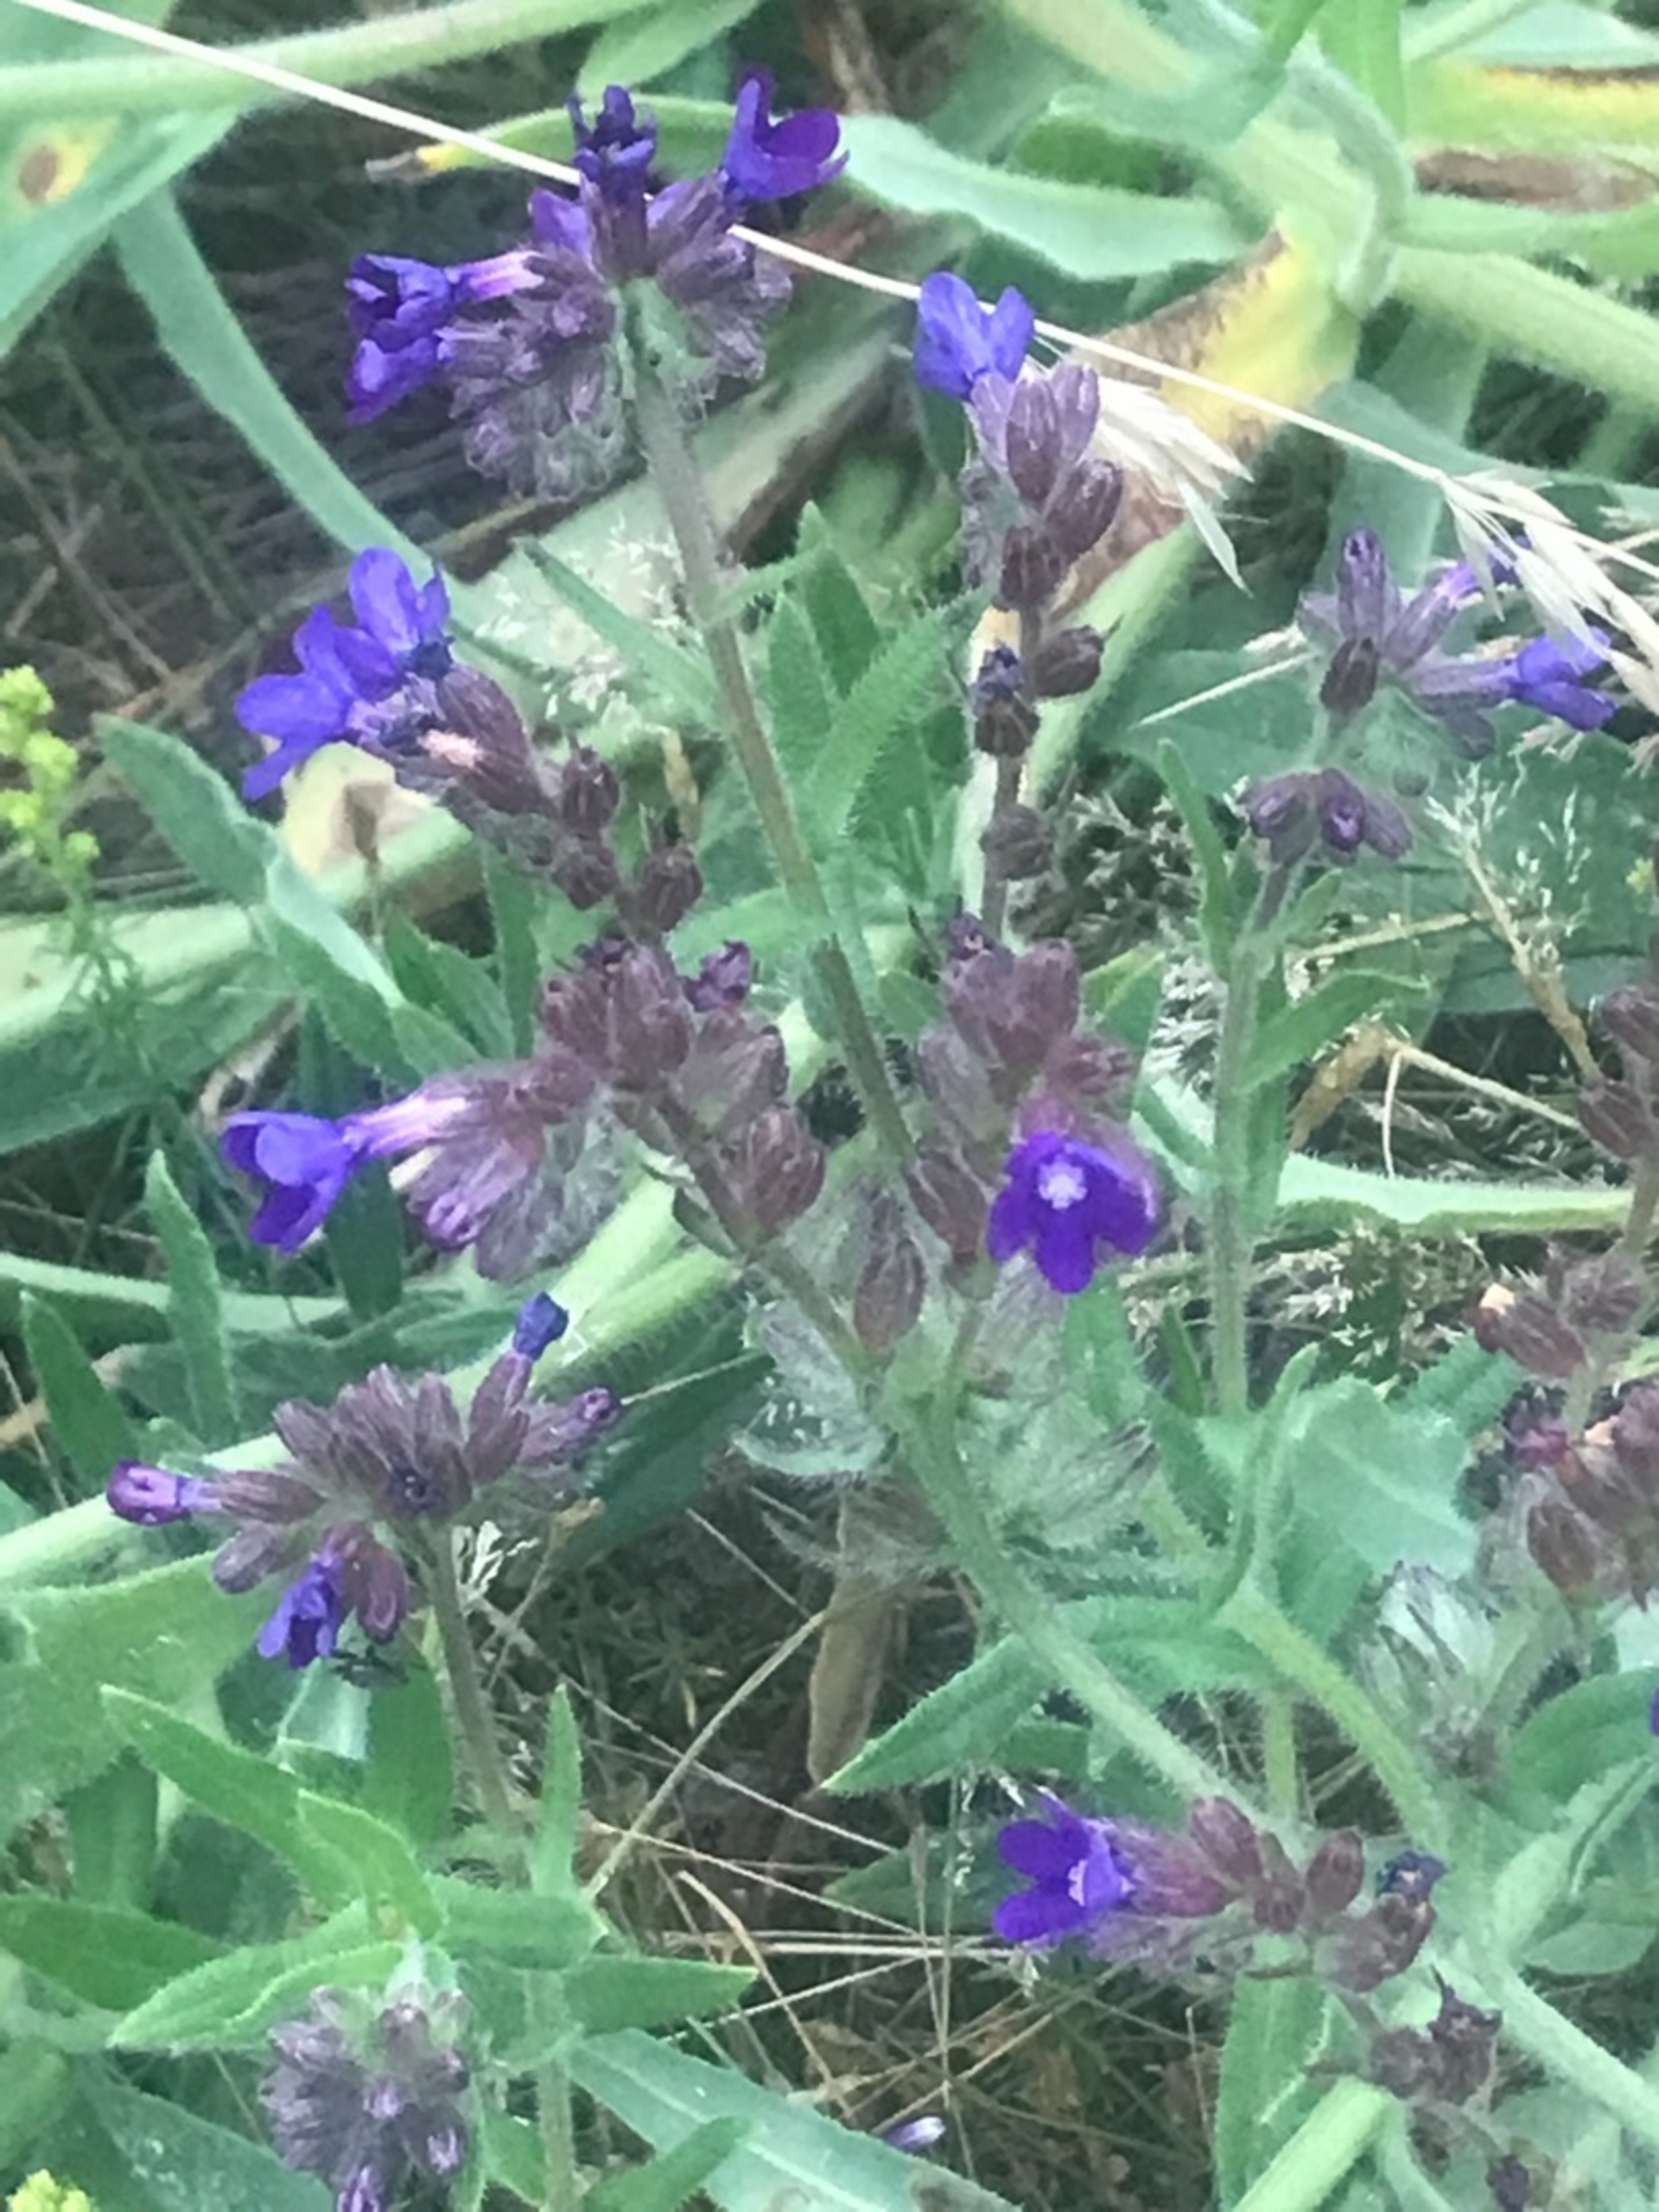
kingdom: Plantae
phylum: Tracheophyta
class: Magnoliopsida
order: Boraginales
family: Boraginaceae
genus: Anchusa
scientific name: Anchusa officinalis
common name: Læge-oksetunge
